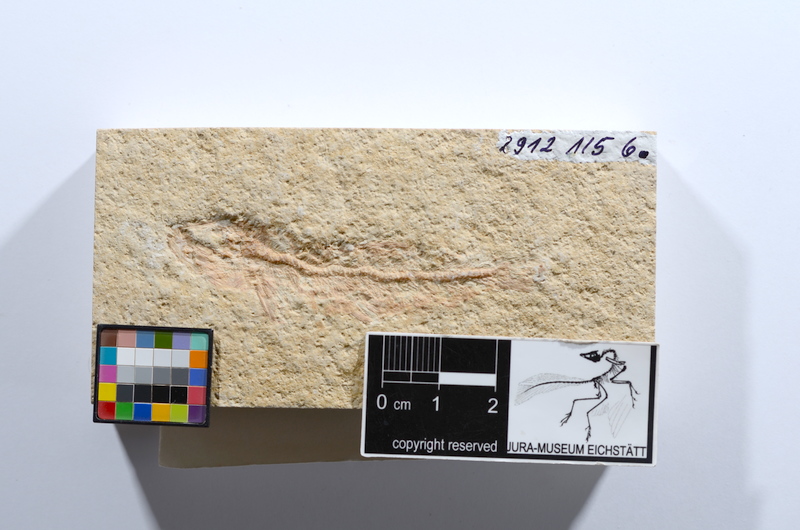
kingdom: Animalia
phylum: Chordata
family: Ascalaboidae
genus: Tharsis
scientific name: Tharsis dubius
